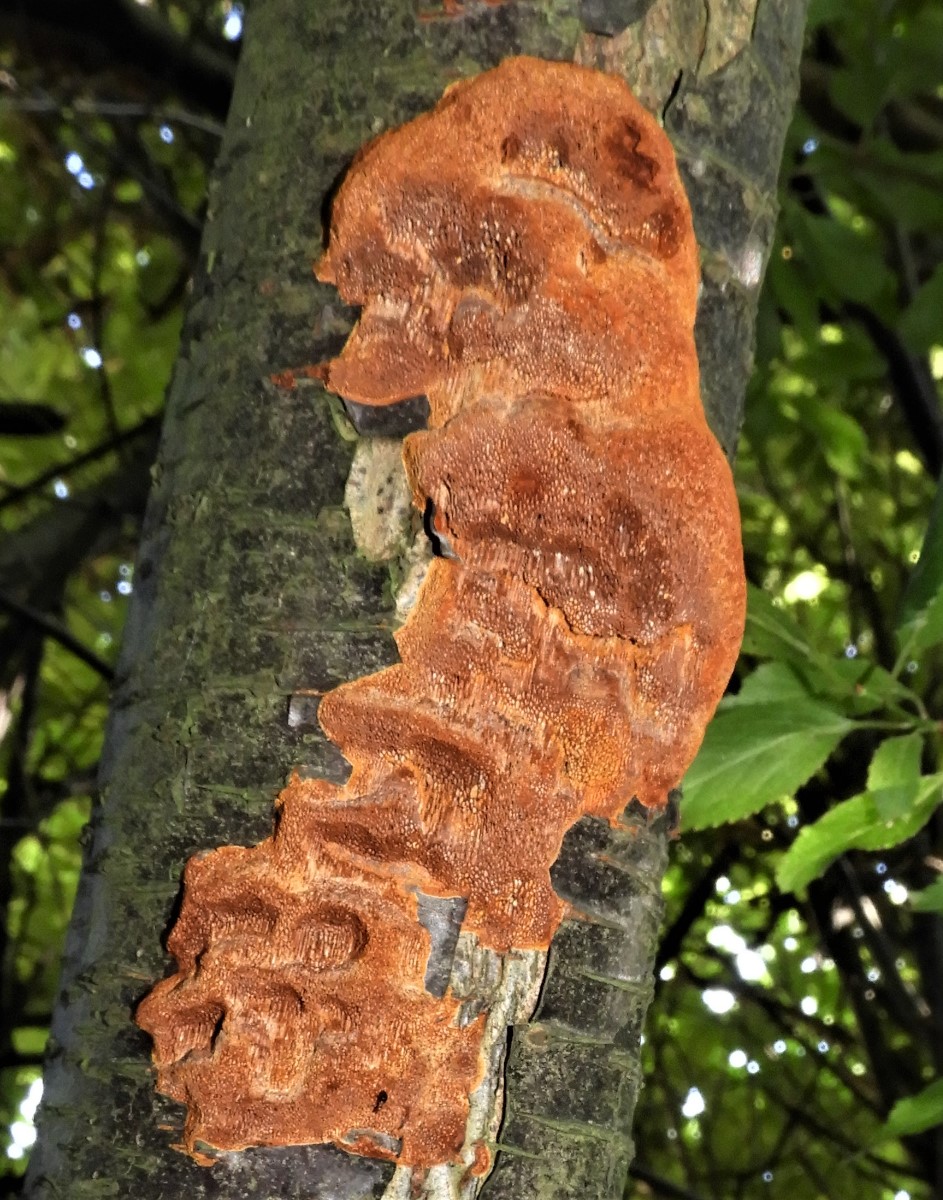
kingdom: Fungi
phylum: Basidiomycota
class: Agaricomycetes
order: Hymenochaetales
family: Hymenochaetaceae
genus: Phellinus
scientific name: Phellinus pomaceus
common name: blomme-ildporesvamp
